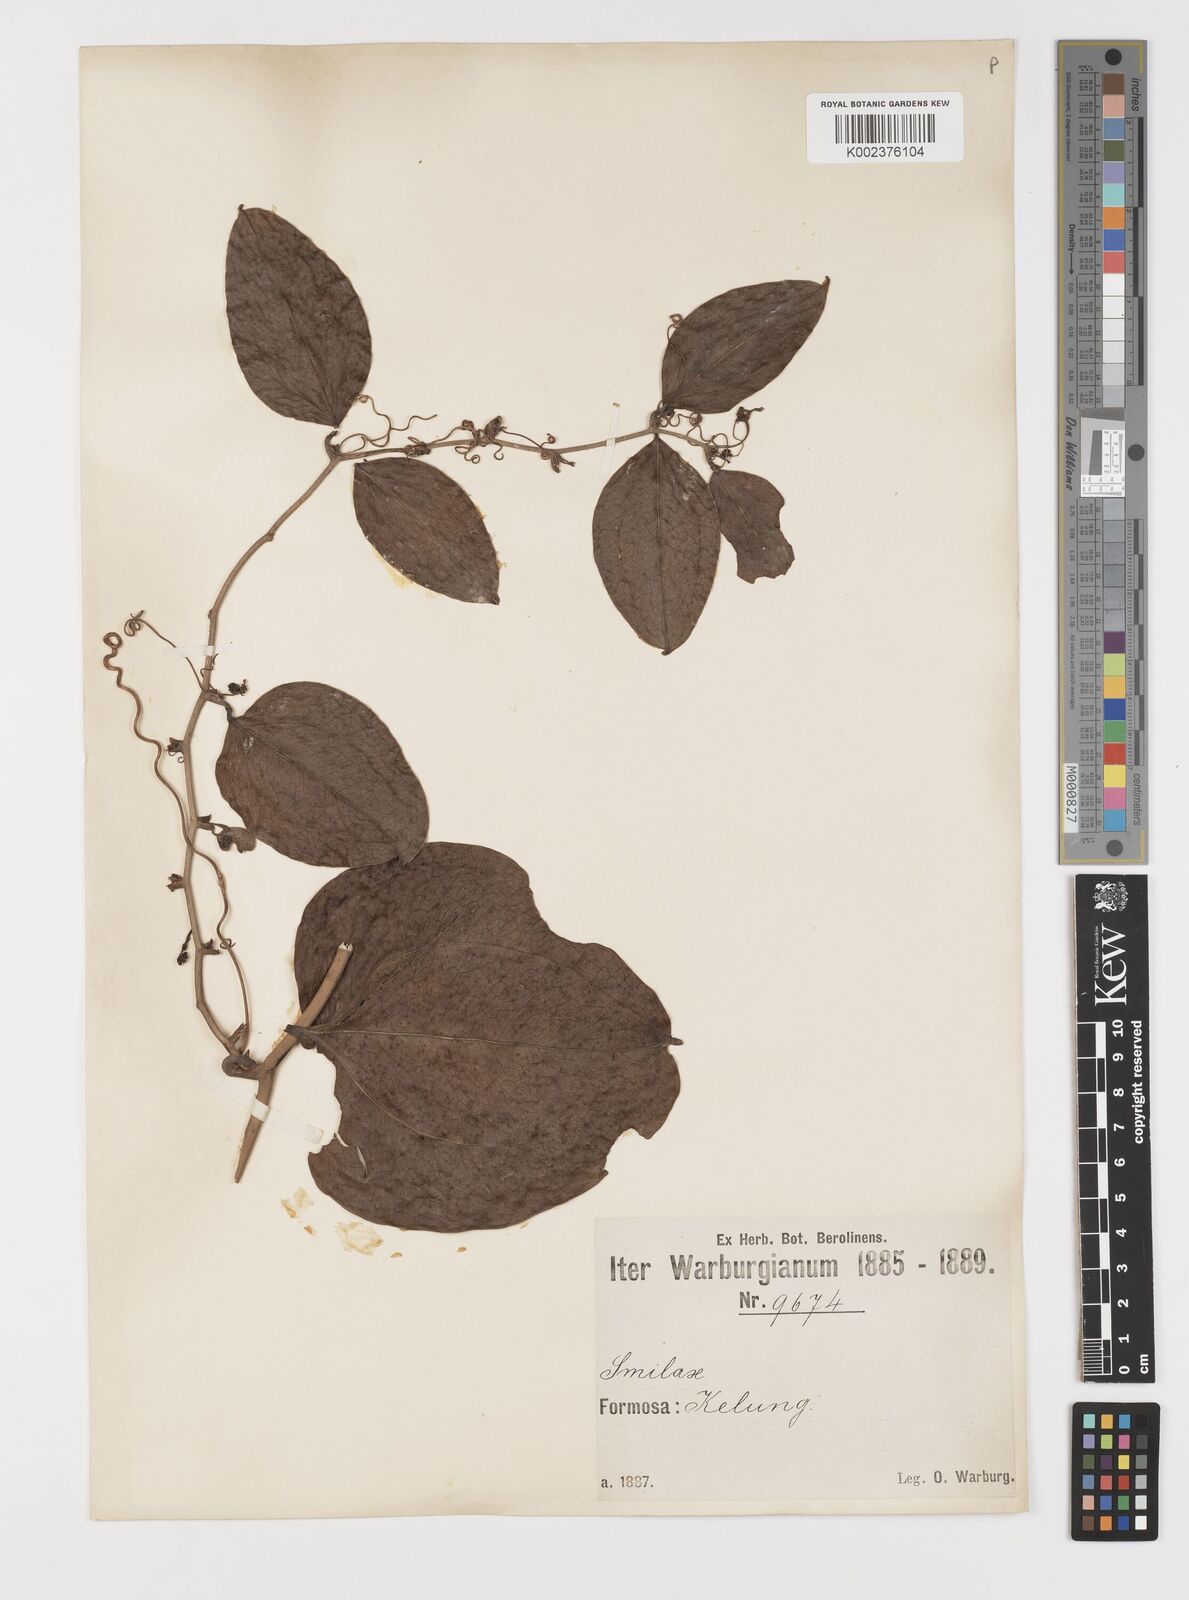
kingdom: Plantae
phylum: Tracheophyta
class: Liliopsida
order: Liliales
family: Smilacaceae
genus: Smilax
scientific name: Smilax bracteata
